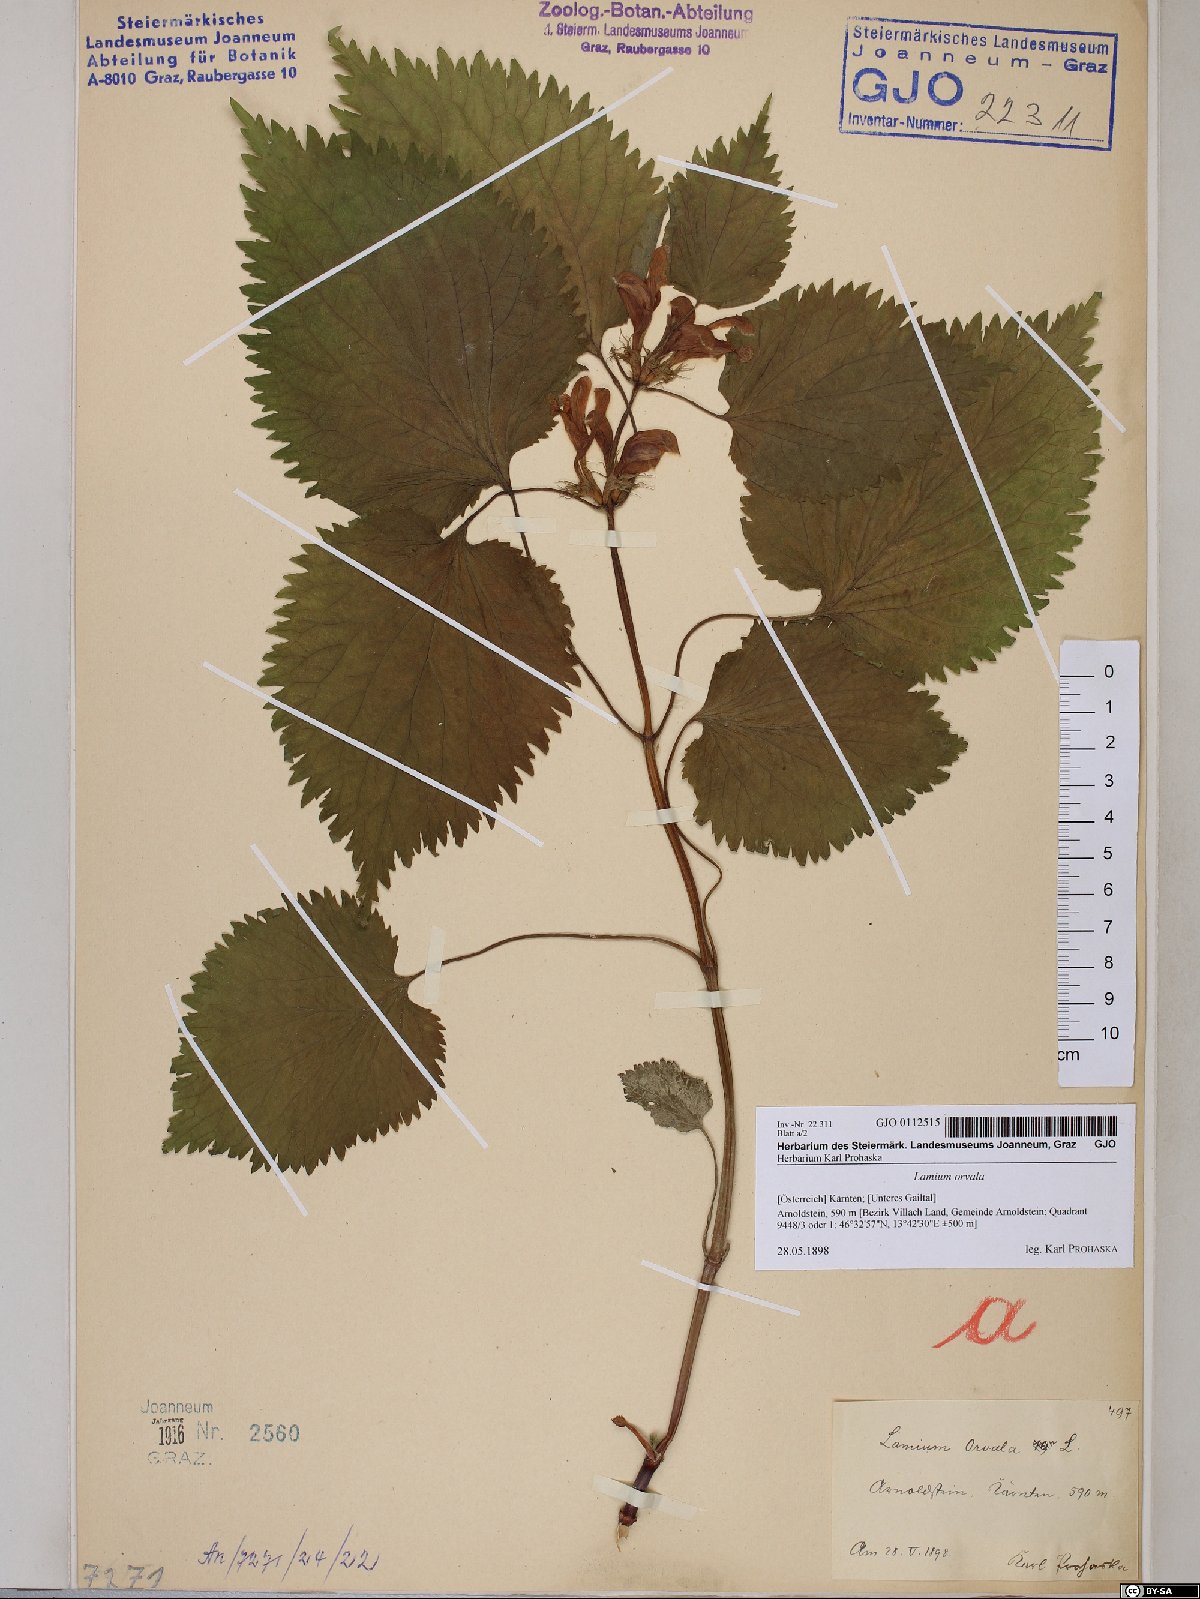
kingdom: Plantae
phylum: Tracheophyta
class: Magnoliopsida
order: Lamiales
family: Lamiaceae
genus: Lamium
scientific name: Lamium orvala
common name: Balm-leaved archangel
